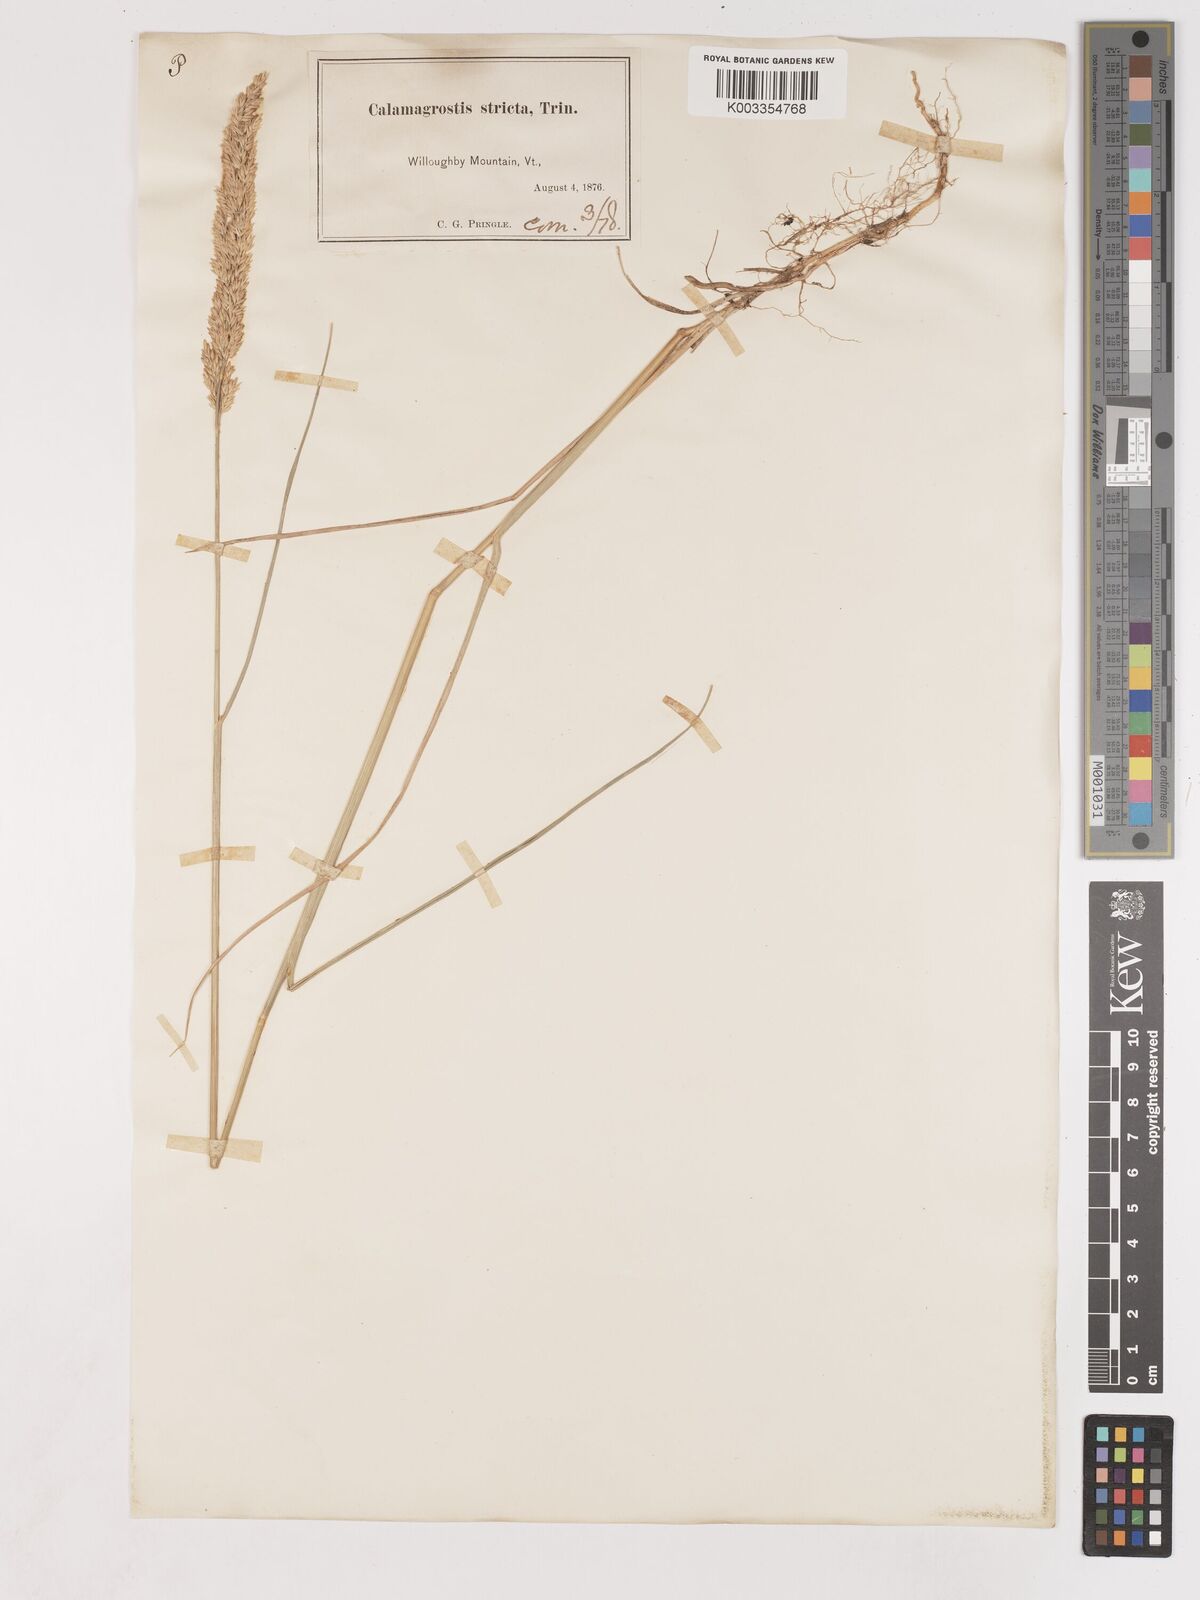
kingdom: Plantae
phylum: Tracheophyta
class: Liliopsida
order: Poales
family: Poaceae
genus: Cinnagrostis
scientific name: Cinnagrostis recta
